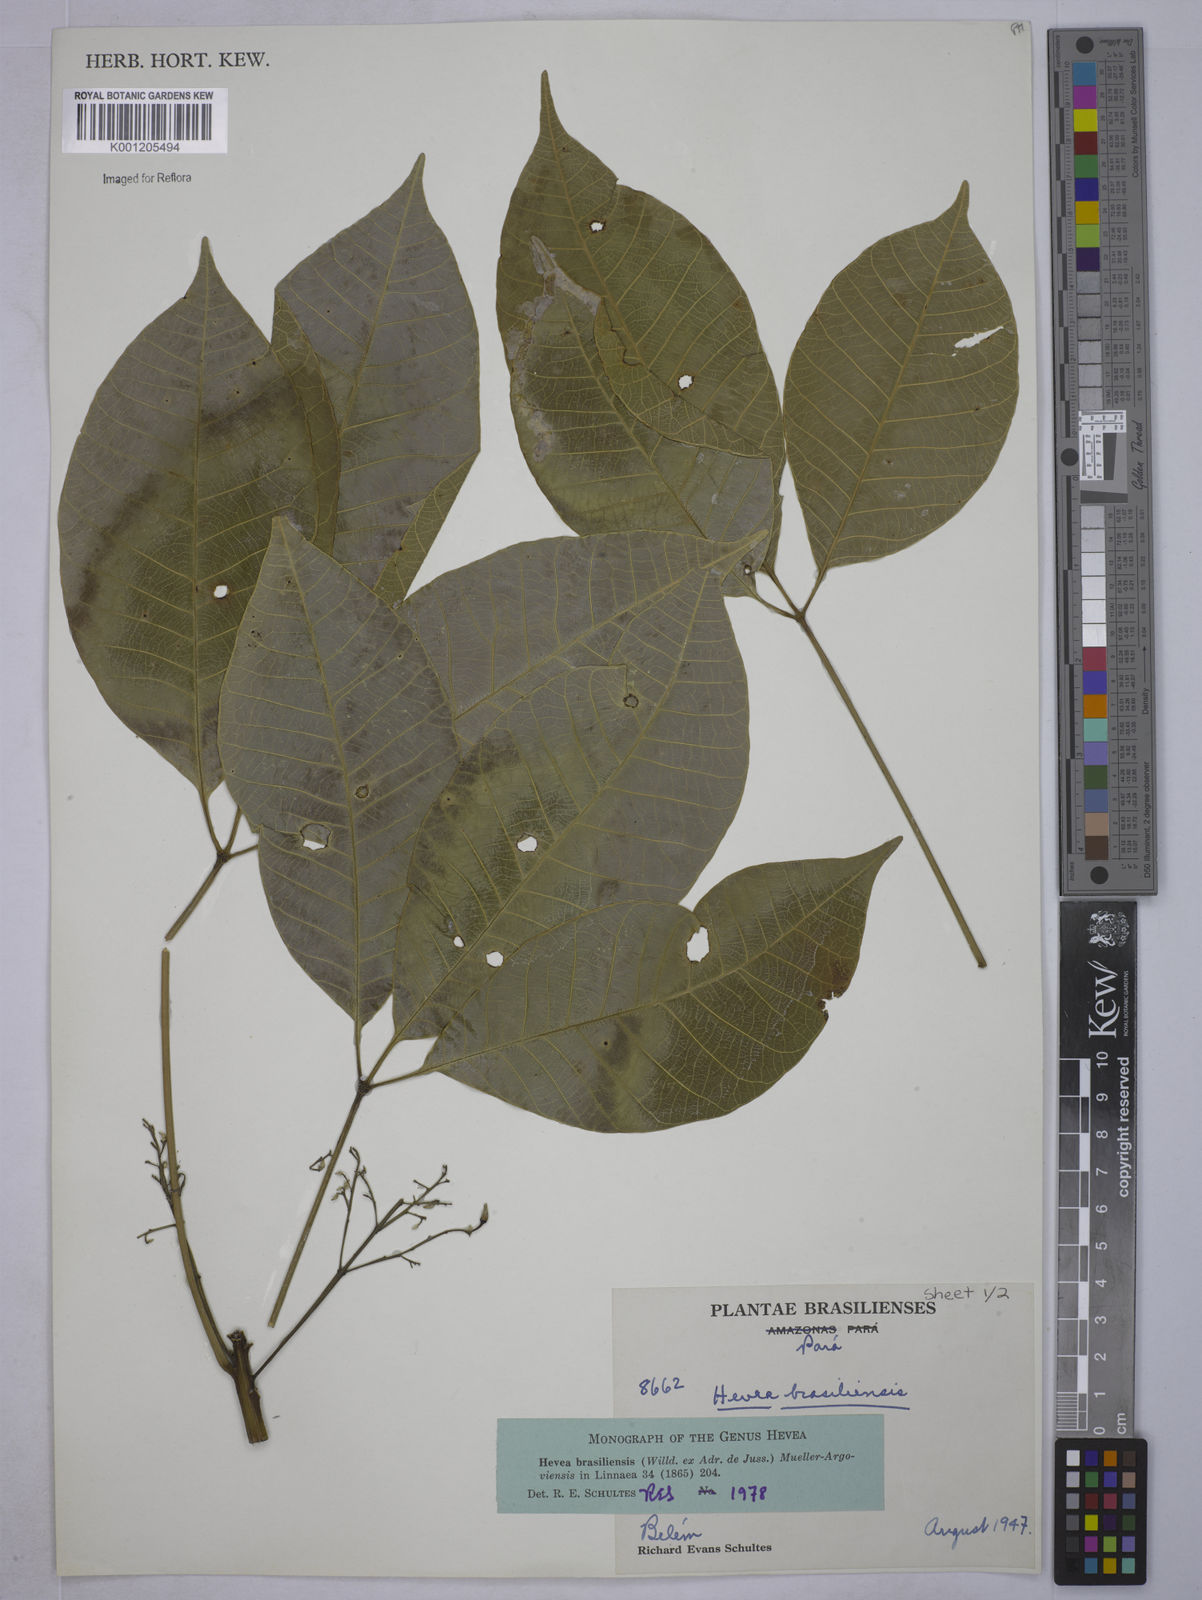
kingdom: Plantae
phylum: Tracheophyta
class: Magnoliopsida
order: Malpighiales
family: Euphorbiaceae
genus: Hevea
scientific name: Hevea
